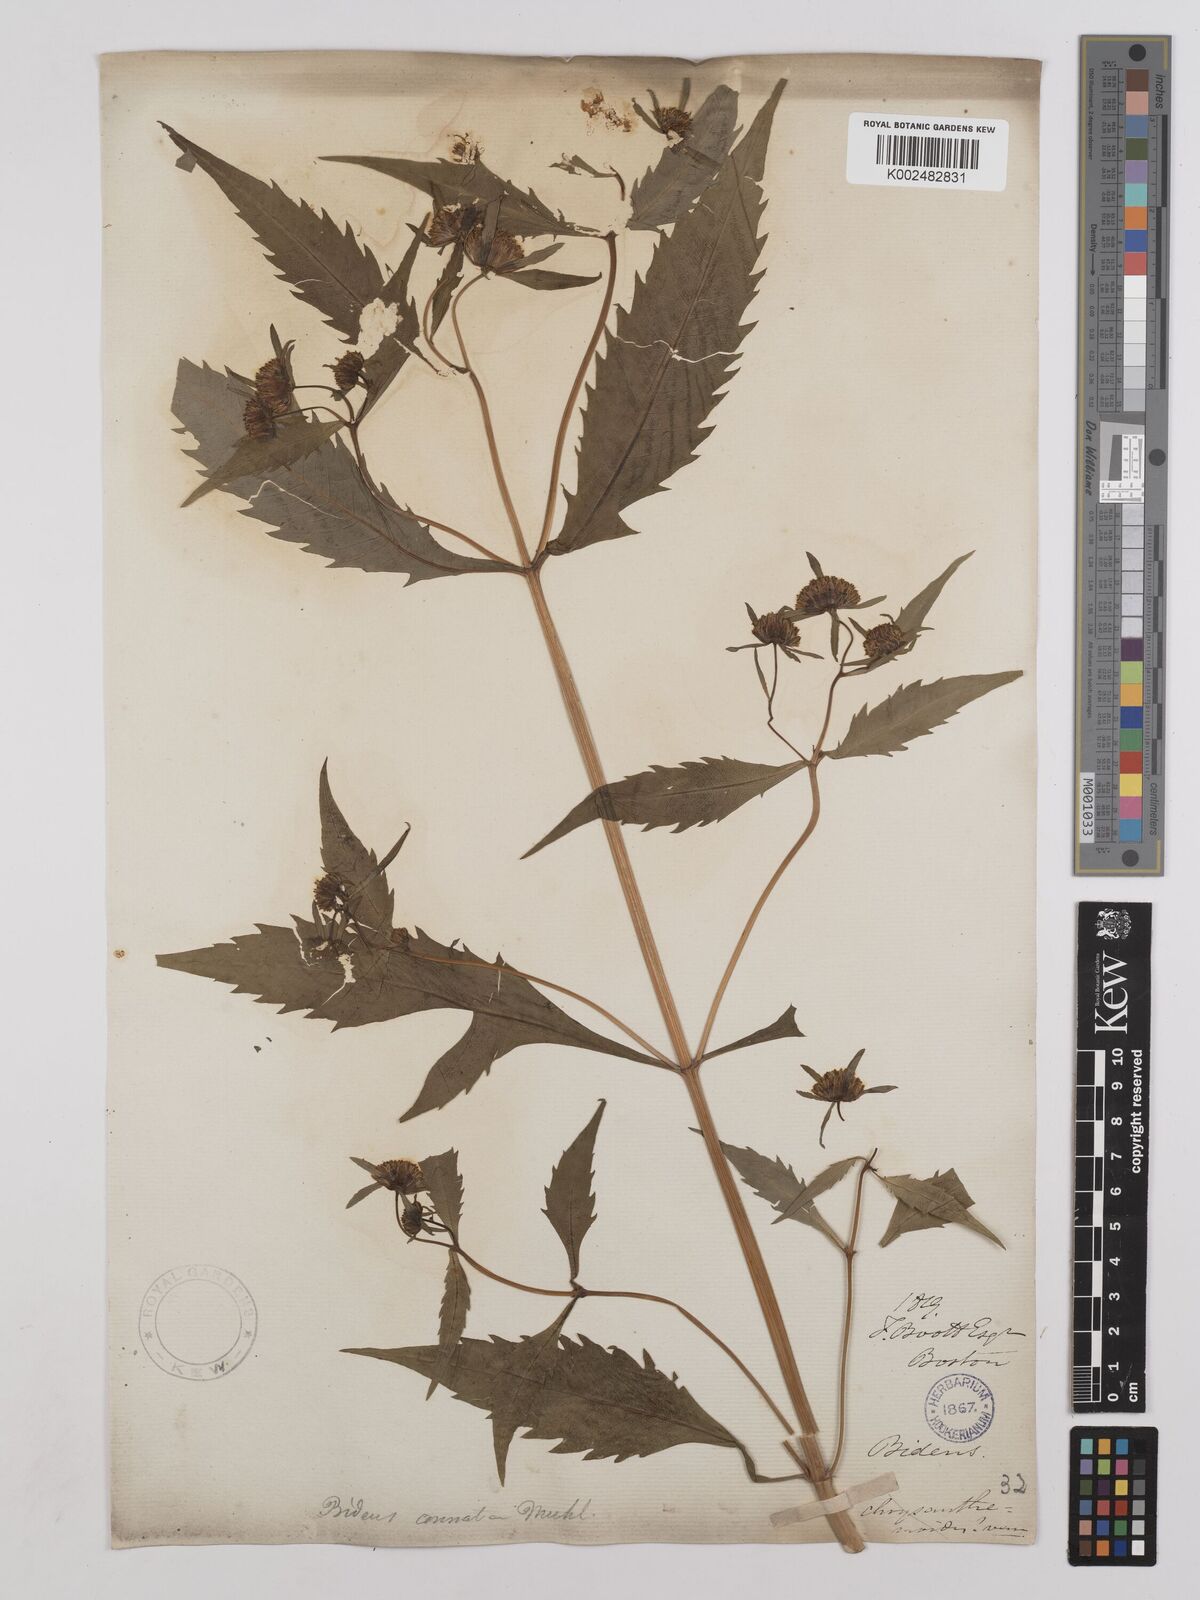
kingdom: Plantae
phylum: Tracheophyta
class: Magnoliopsida
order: Asterales
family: Asteraceae
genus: Bidens
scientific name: Bidens connata
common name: London bur-marigold
